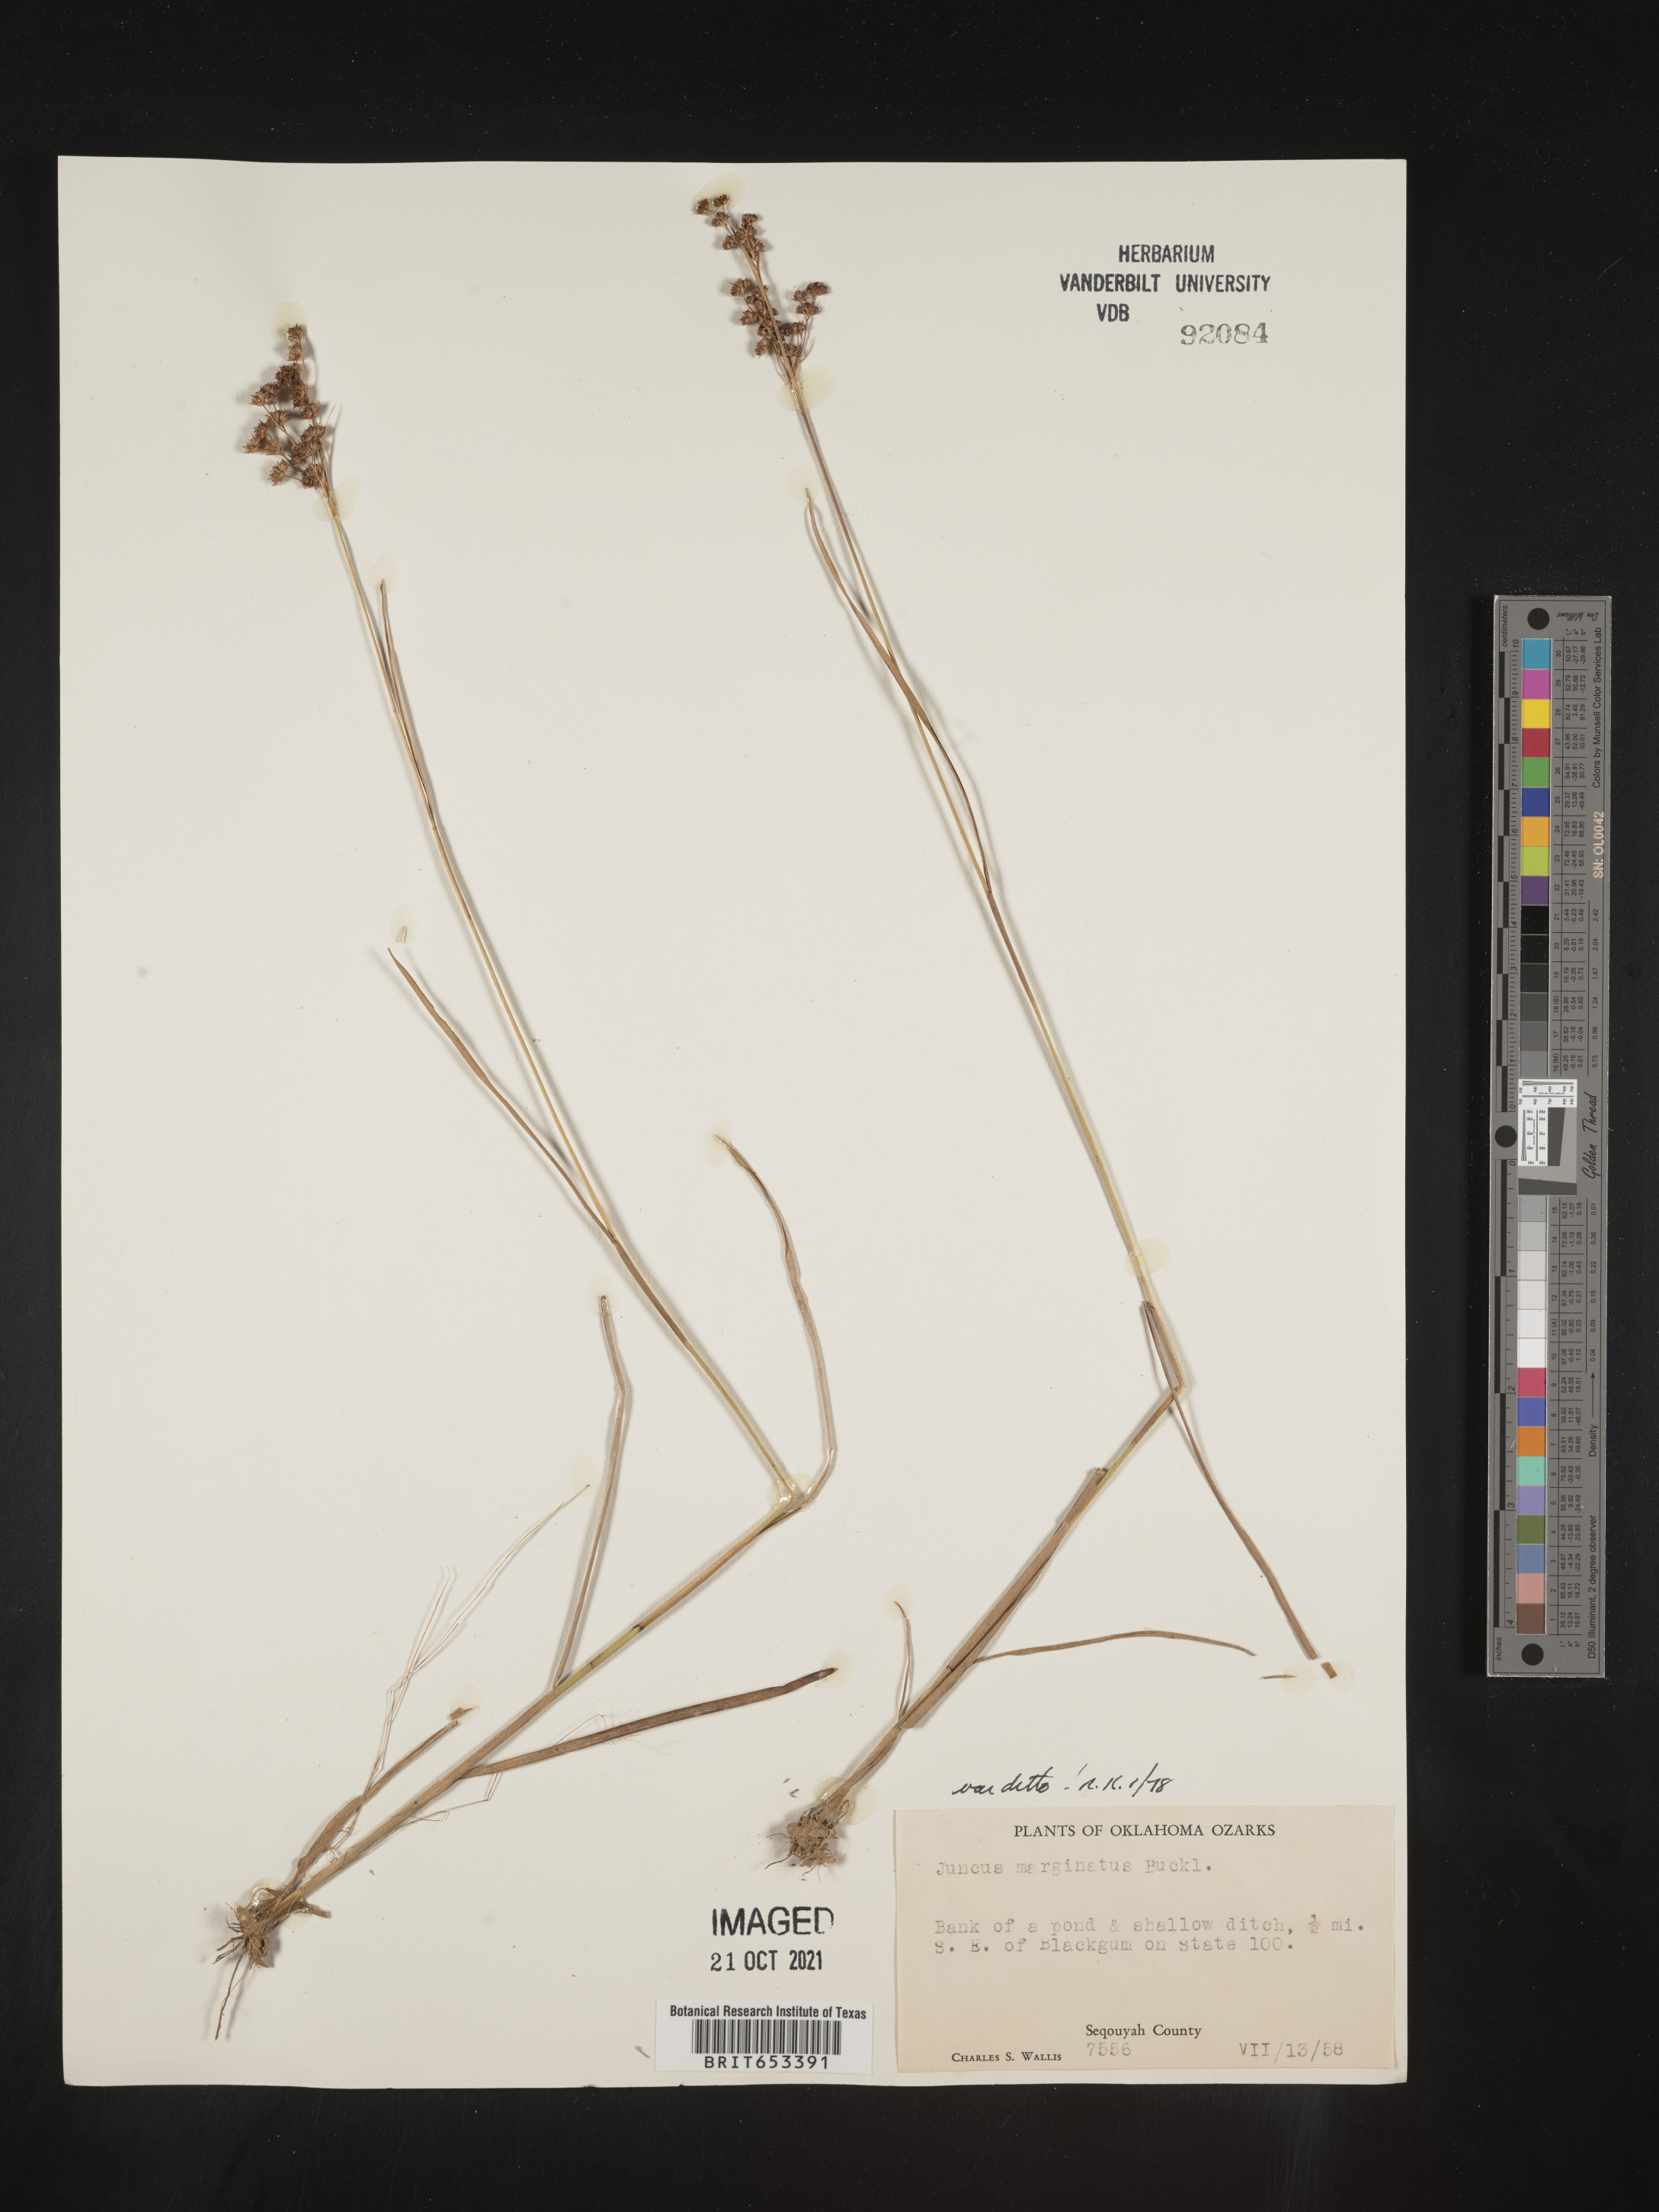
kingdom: Plantae
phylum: Tracheophyta
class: Liliopsida
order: Poales
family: Juncaceae
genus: Juncus
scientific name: Juncus marginatus
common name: Grass-leaf rush
